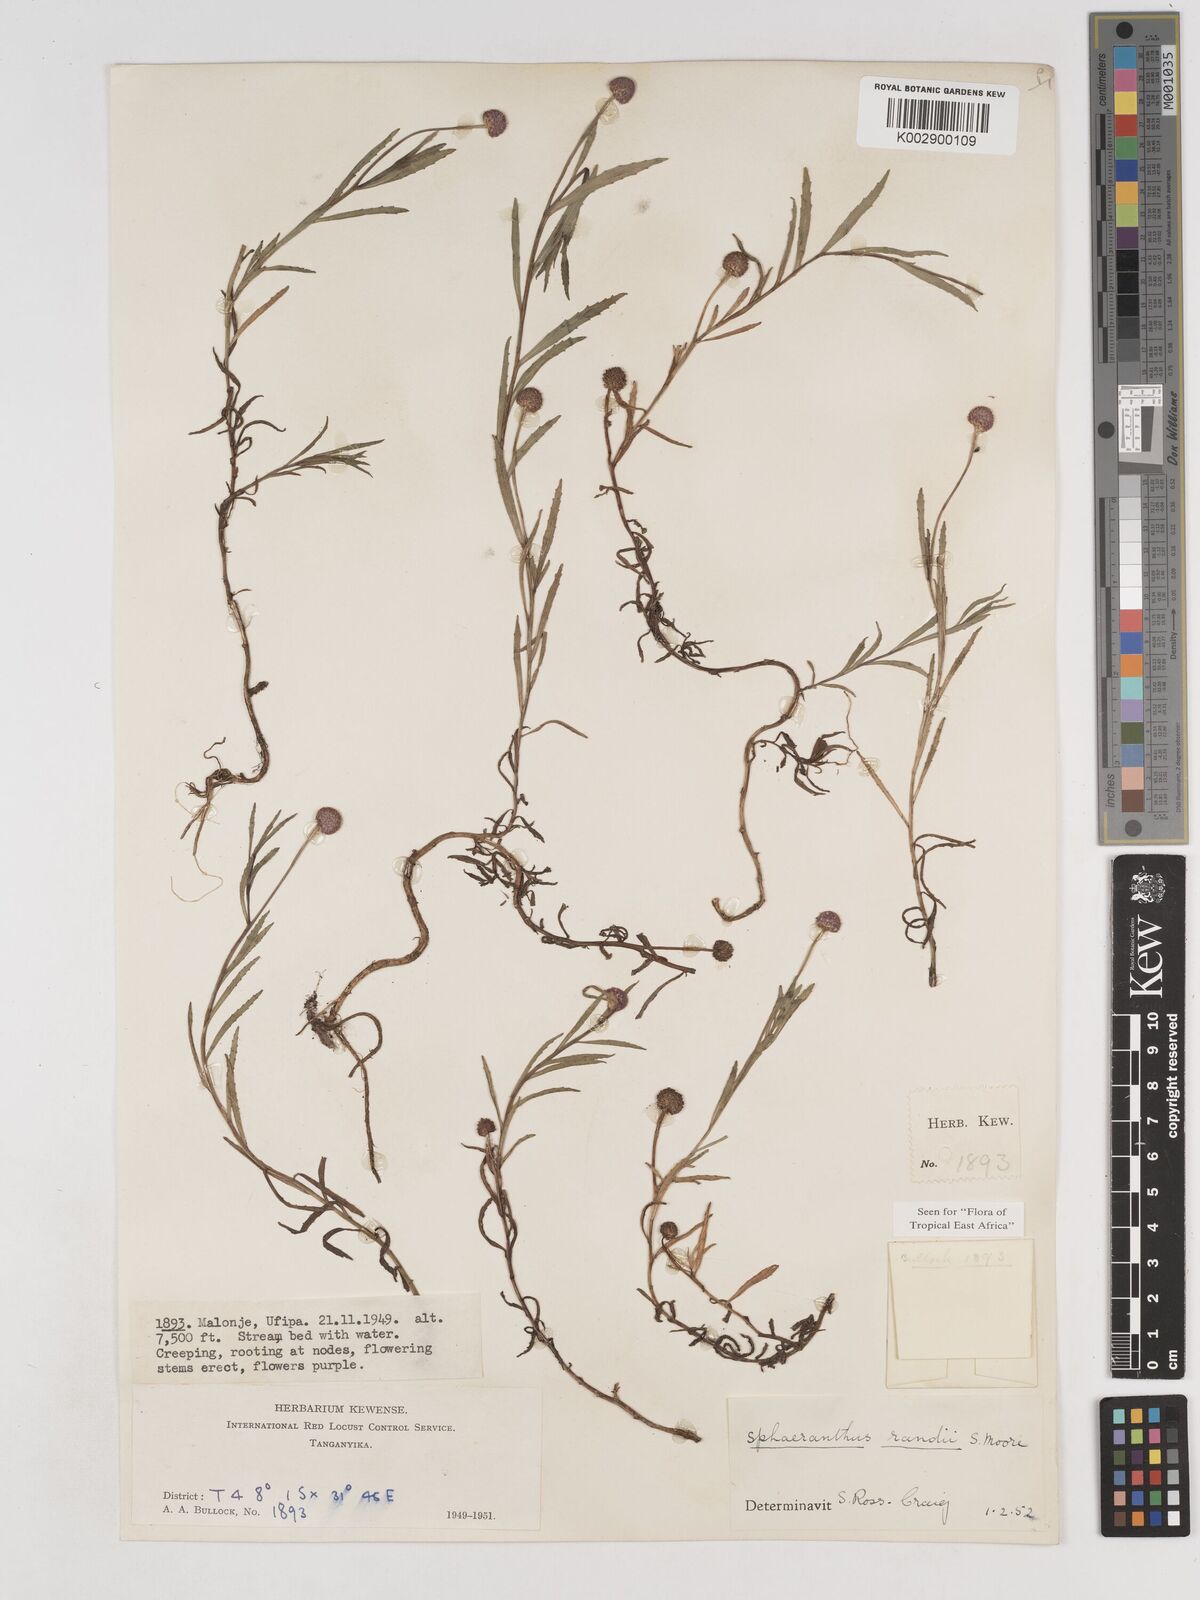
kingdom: Plantae
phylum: Tracheophyta
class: Magnoliopsida
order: Asterales
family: Asteraceae
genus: Sphaeranthus
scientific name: Sphaeranthus randii
